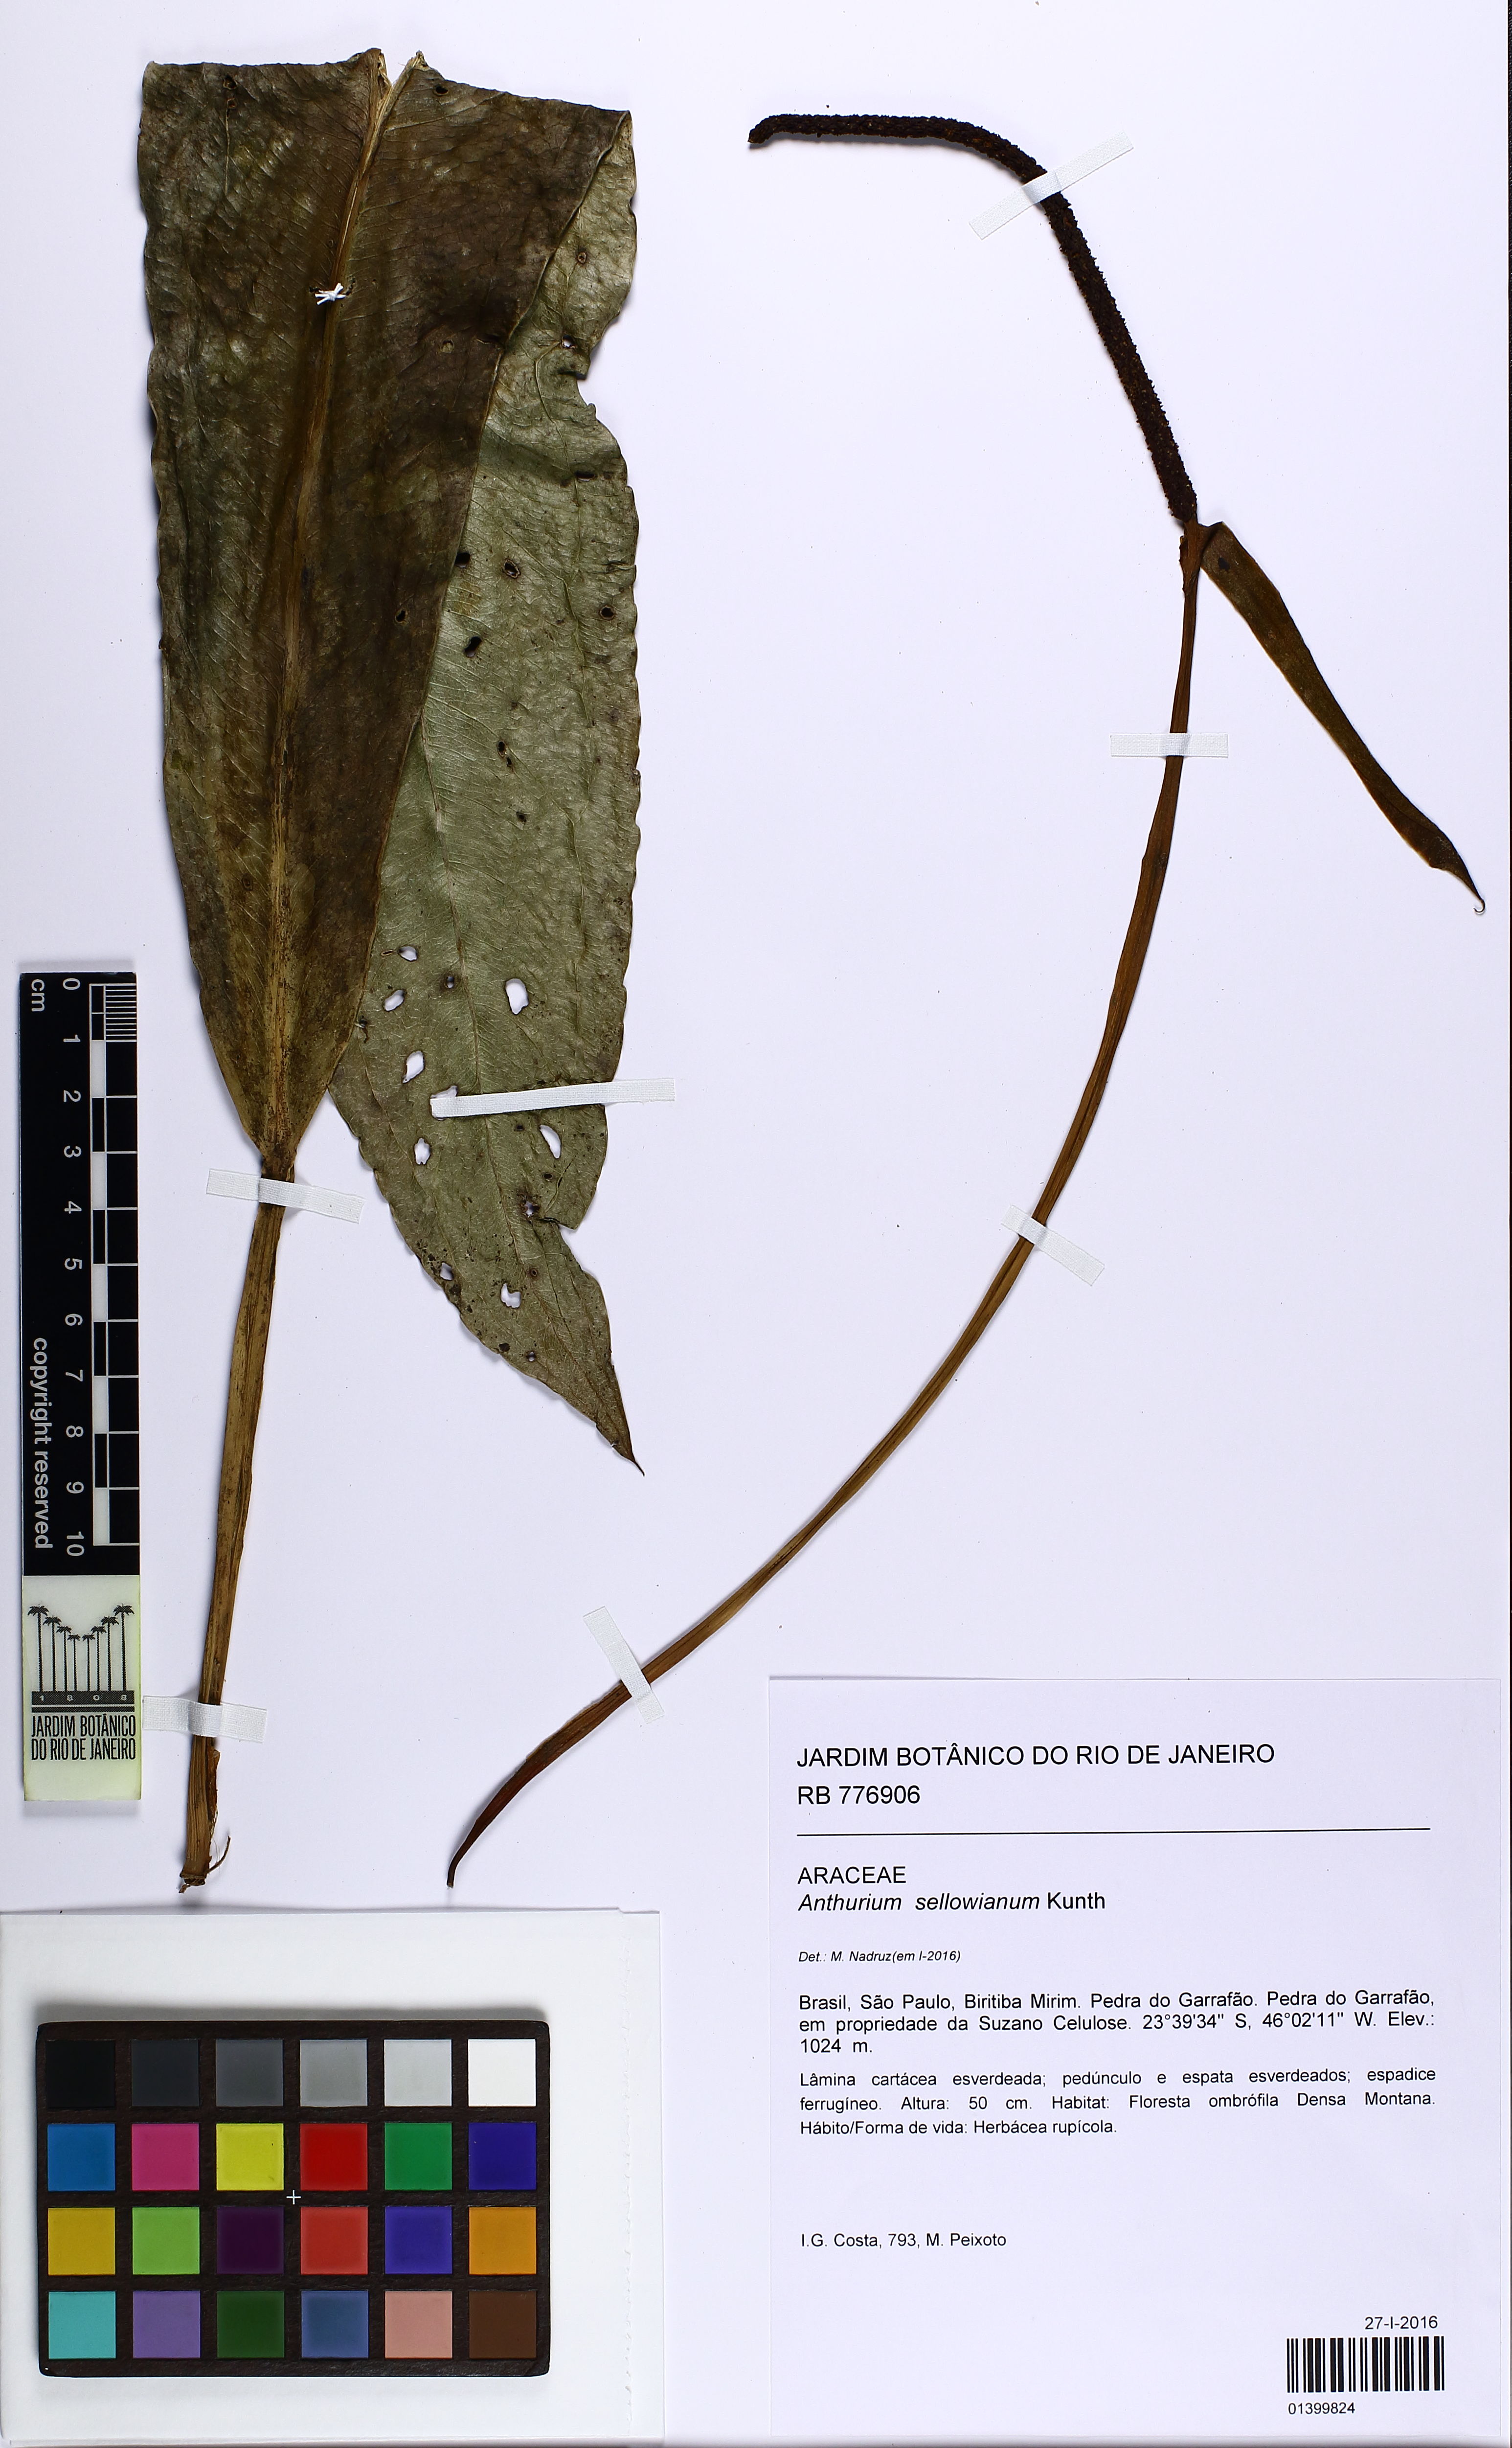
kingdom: Plantae
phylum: Tracheophyta
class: Liliopsida
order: Alismatales
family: Araceae
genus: Anthurium
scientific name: Anthurium sellowianum
